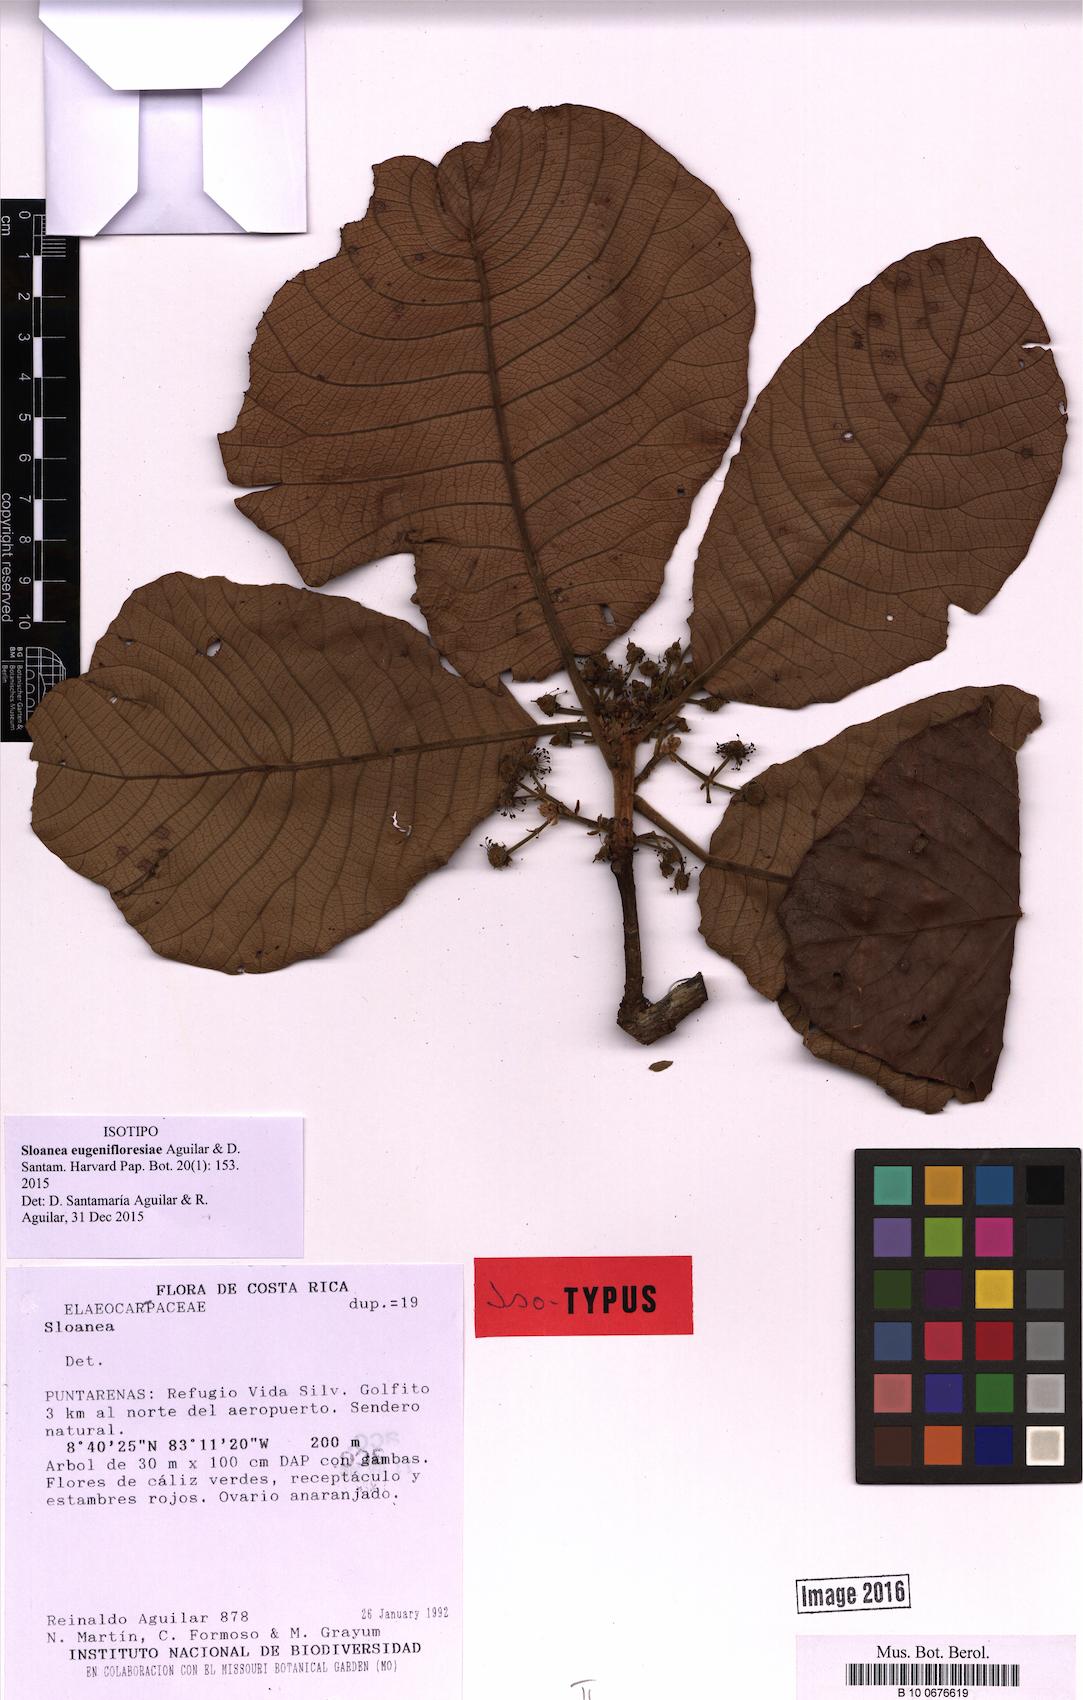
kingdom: Plantae
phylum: Tracheophyta
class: Magnoliopsida
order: Oxalidales
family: Elaeocarpaceae
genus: Sloanea
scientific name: Sloanea eugenifloresiae
